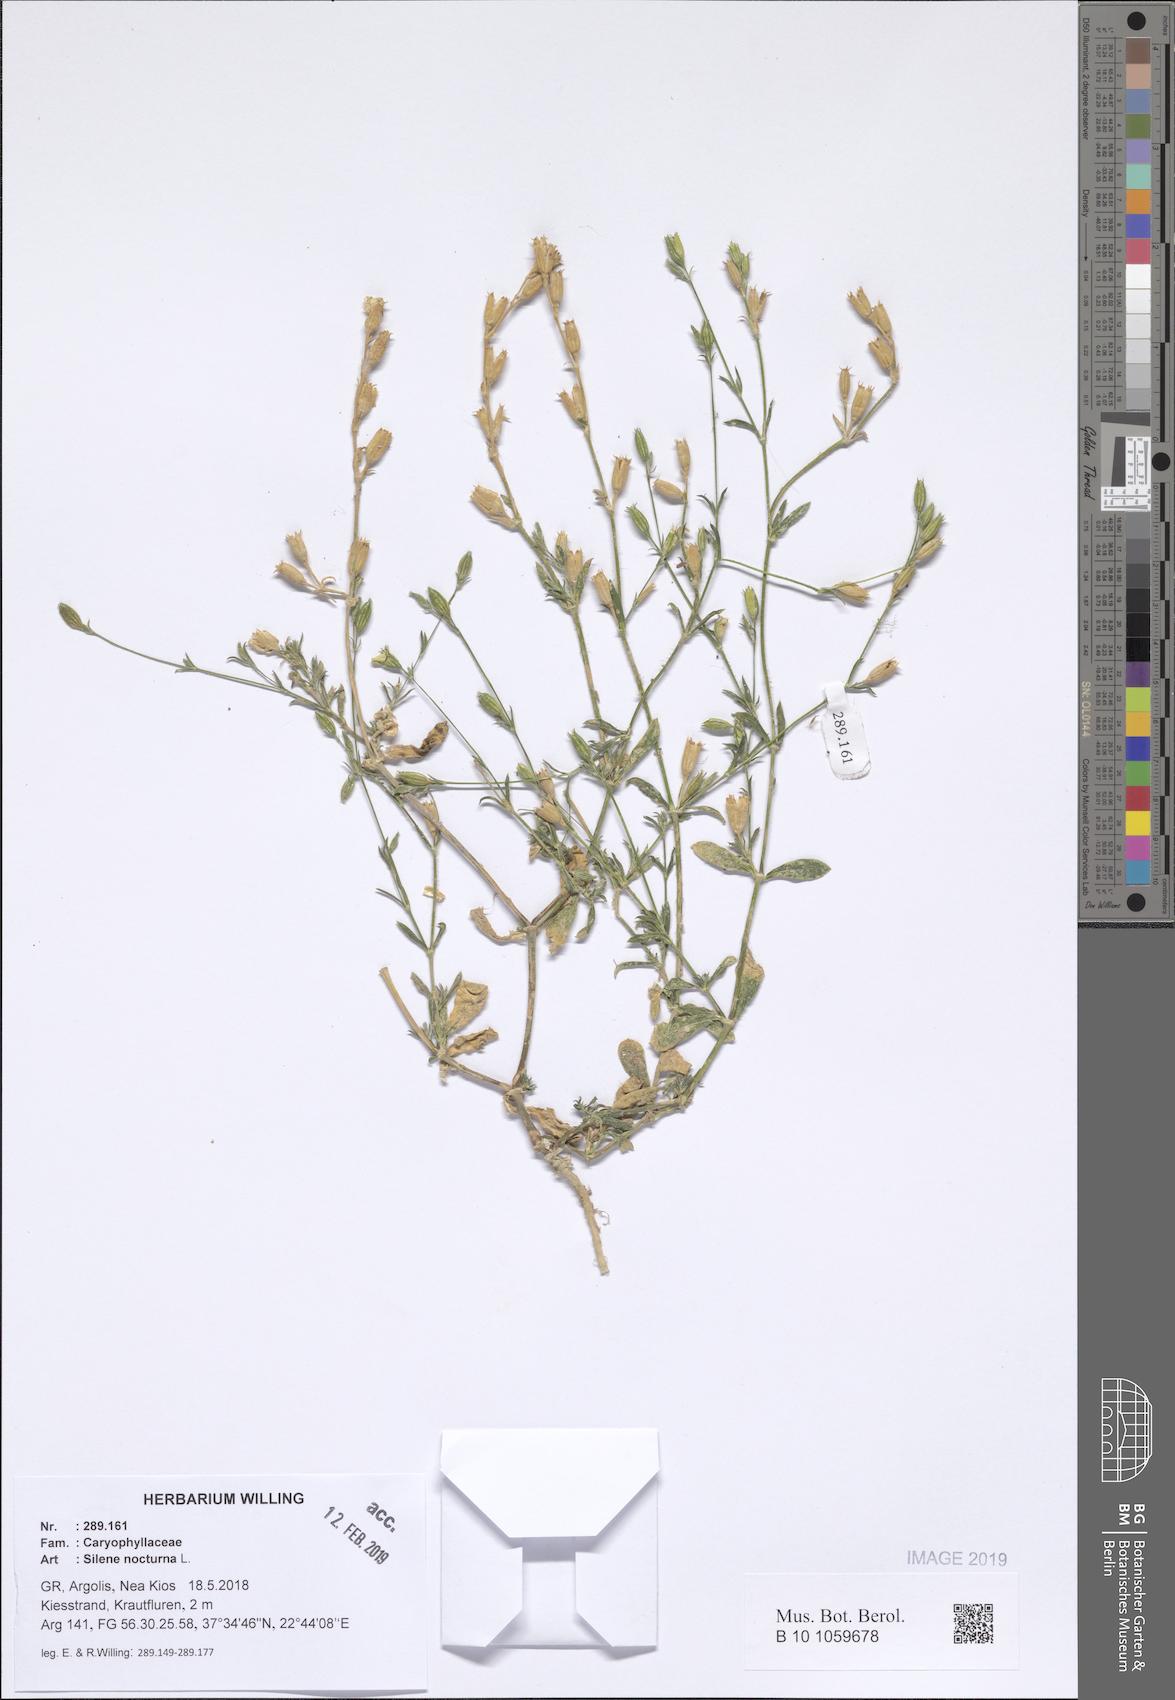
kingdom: Plantae
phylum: Tracheophyta
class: Magnoliopsida
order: Caryophyllales
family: Caryophyllaceae
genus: Silene
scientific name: Silene nocturna
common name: Mediterranean catchfly
